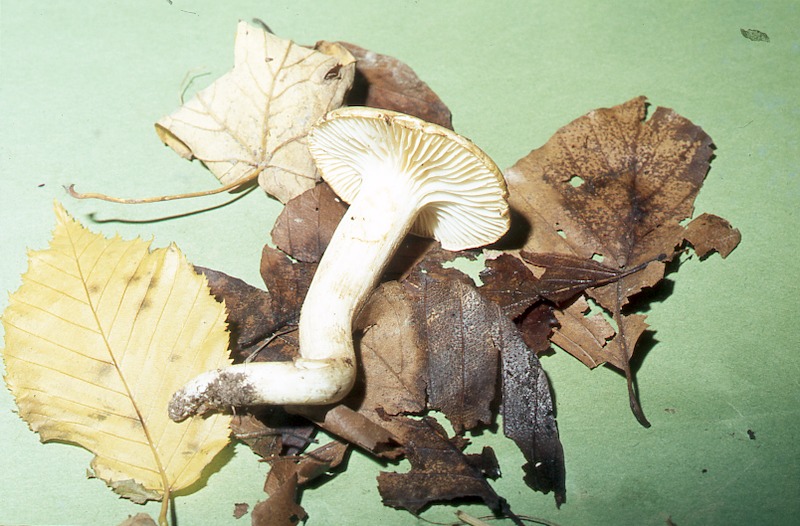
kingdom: Fungi
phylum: Basidiomycota
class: Agaricomycetes
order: Agaricales
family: Hygrophoraceae
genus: Hygrophorus
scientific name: Hygrophorus nemoreus
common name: Oak woodwax
